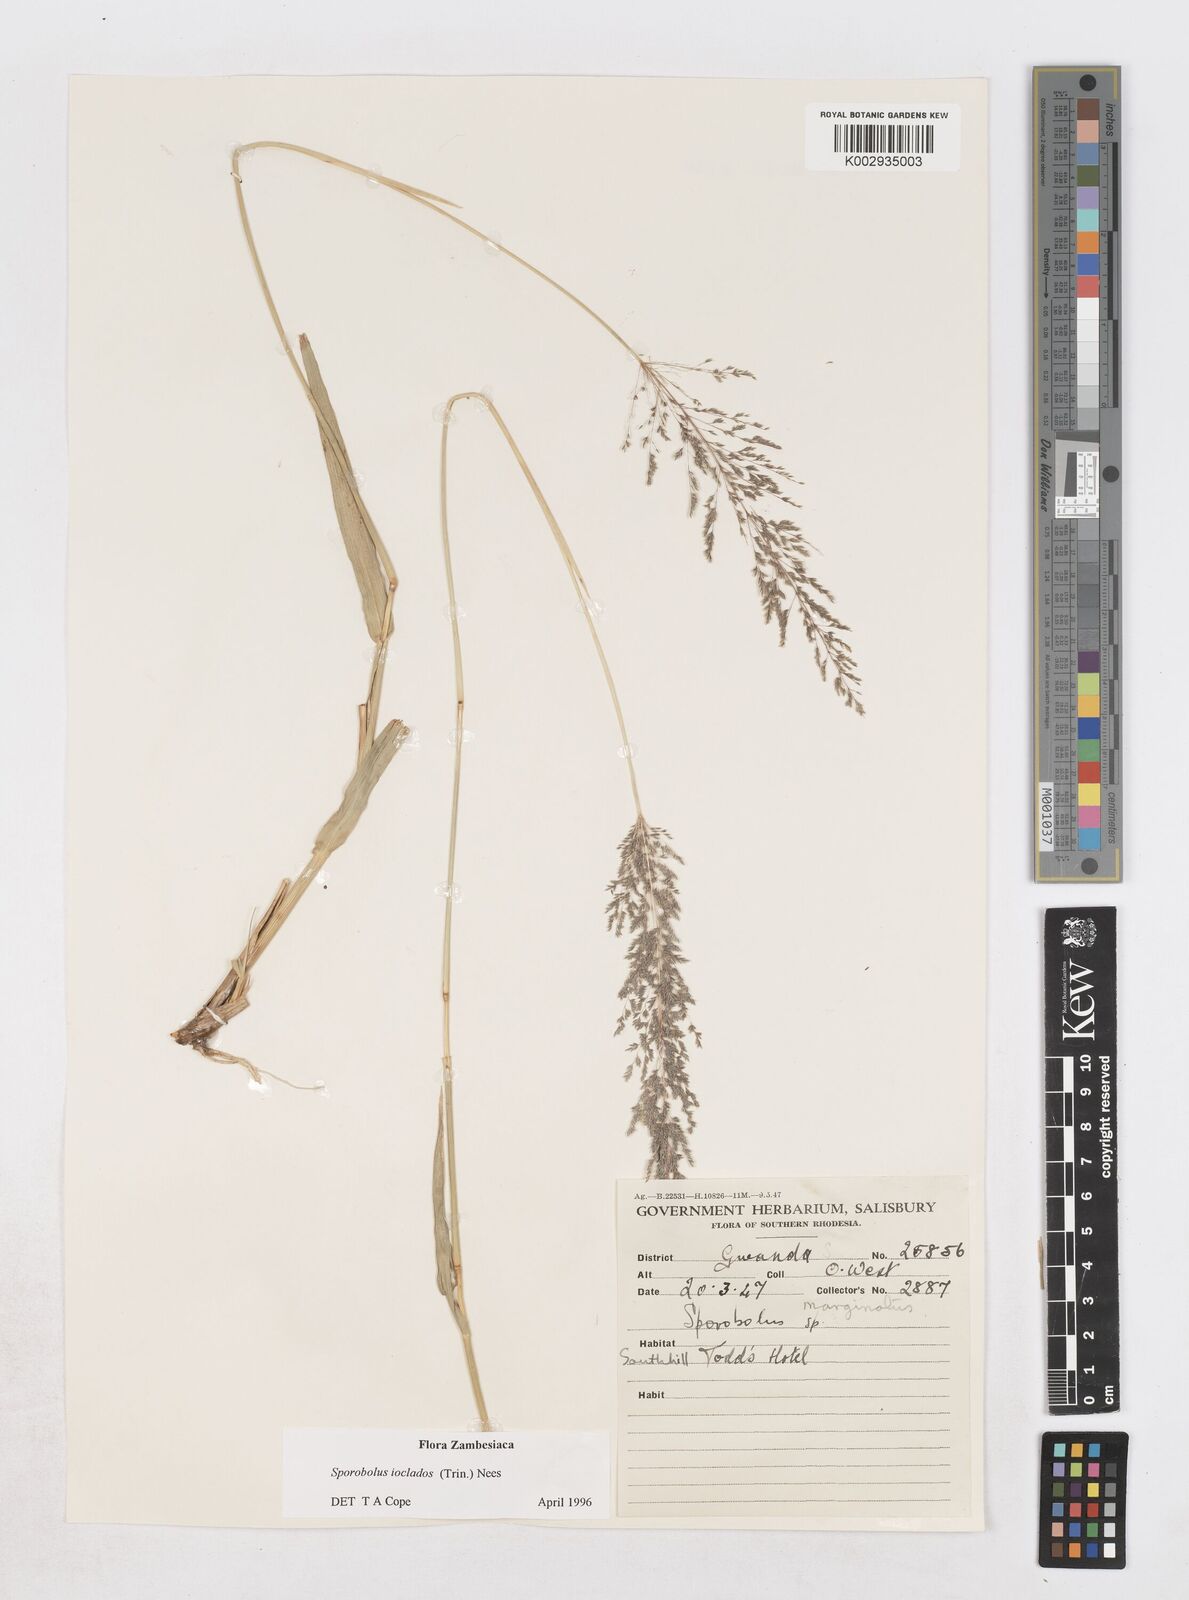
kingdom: Plantae
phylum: Tracheophyta
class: Liliopsida
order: Poales
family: Poaceae
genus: Sporobolus
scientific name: Sporobolus ioclados
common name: Pan dropseed
